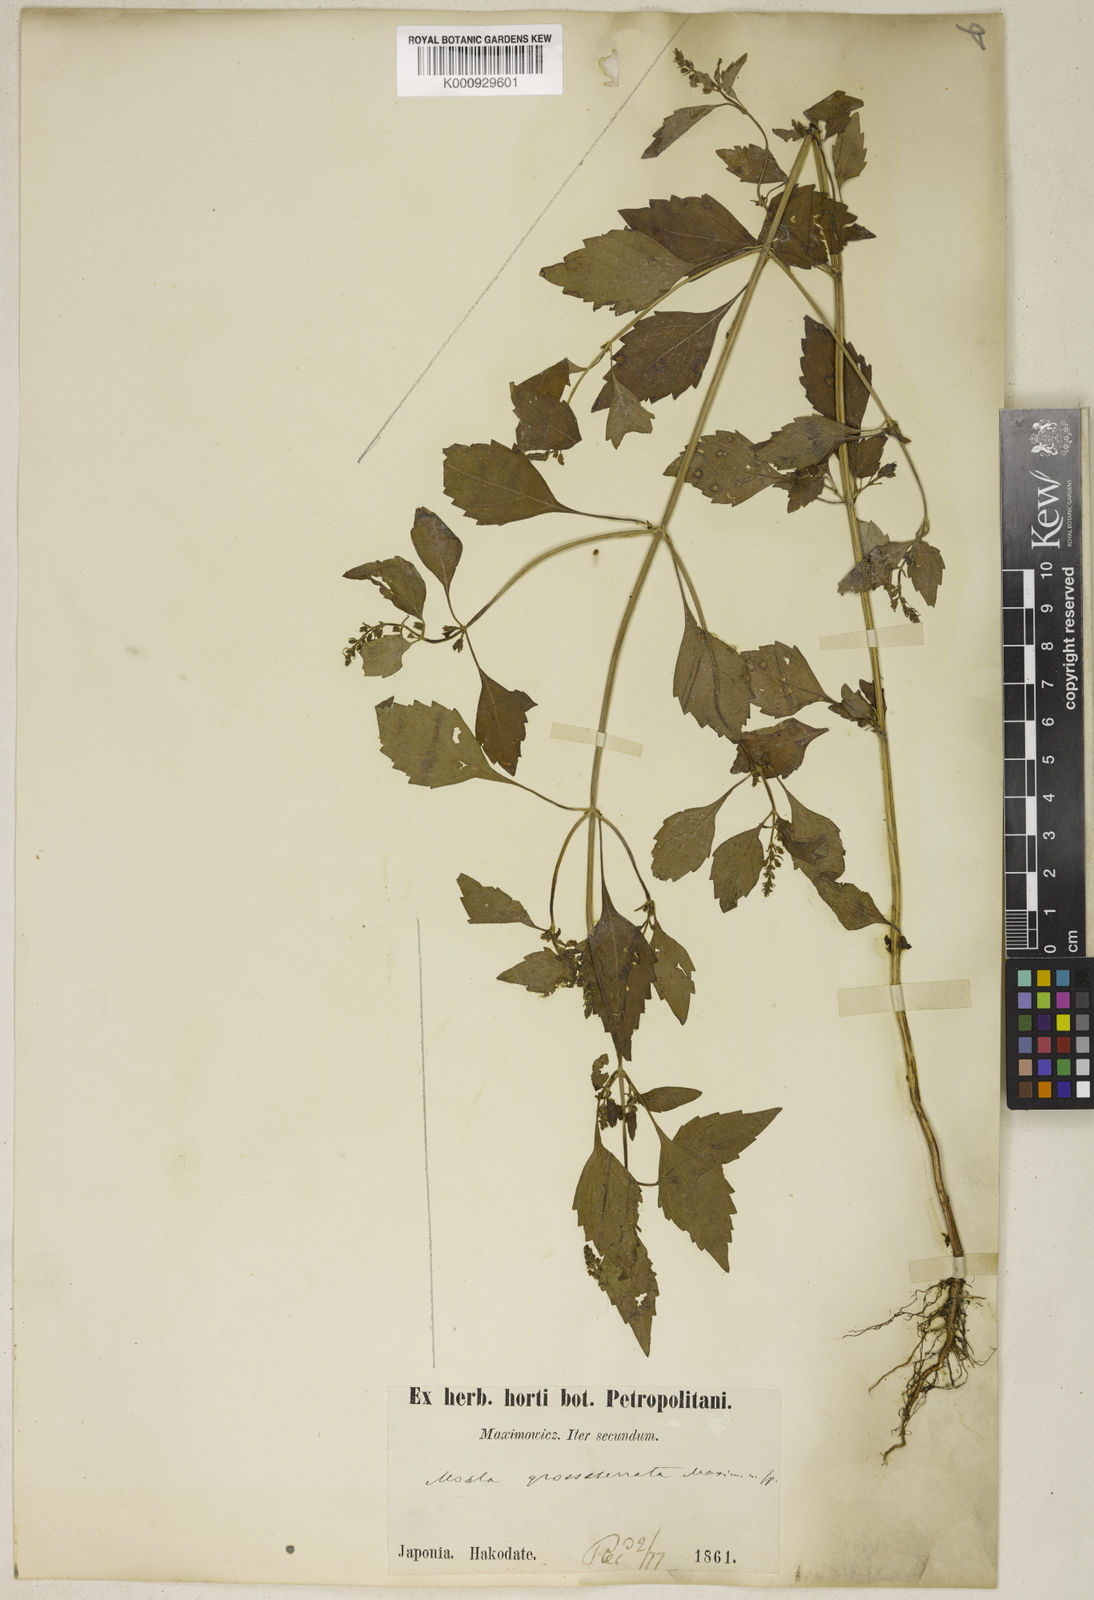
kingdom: Plantae
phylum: Tracheophyta
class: Magnoliopsida
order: Lamiales
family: Lamiaceae
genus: Mosla
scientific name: Mosla dianthera
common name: Miniature beefsteakplant
